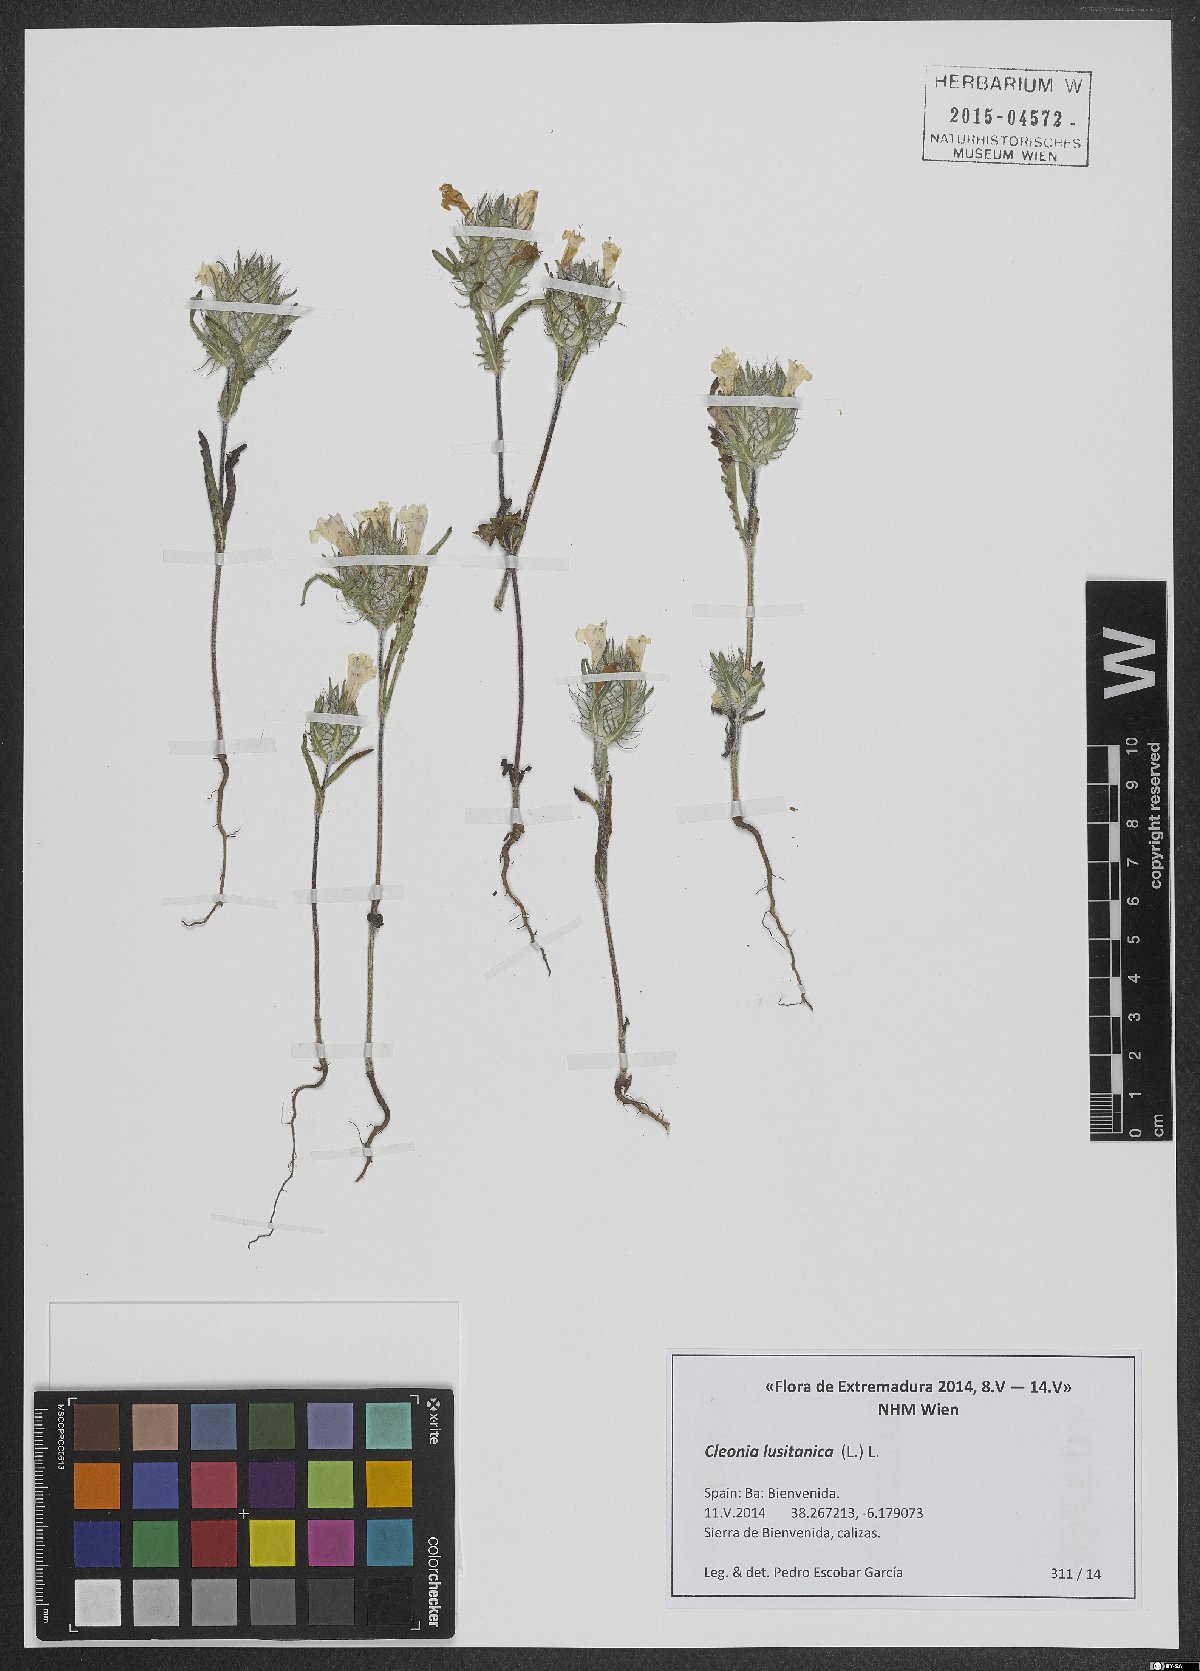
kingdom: Plantae
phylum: Tracheophyta
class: Magnoliopsida
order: Lamiales
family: Lamiaceae
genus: Cleonia
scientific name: Cleonia lusitanica
